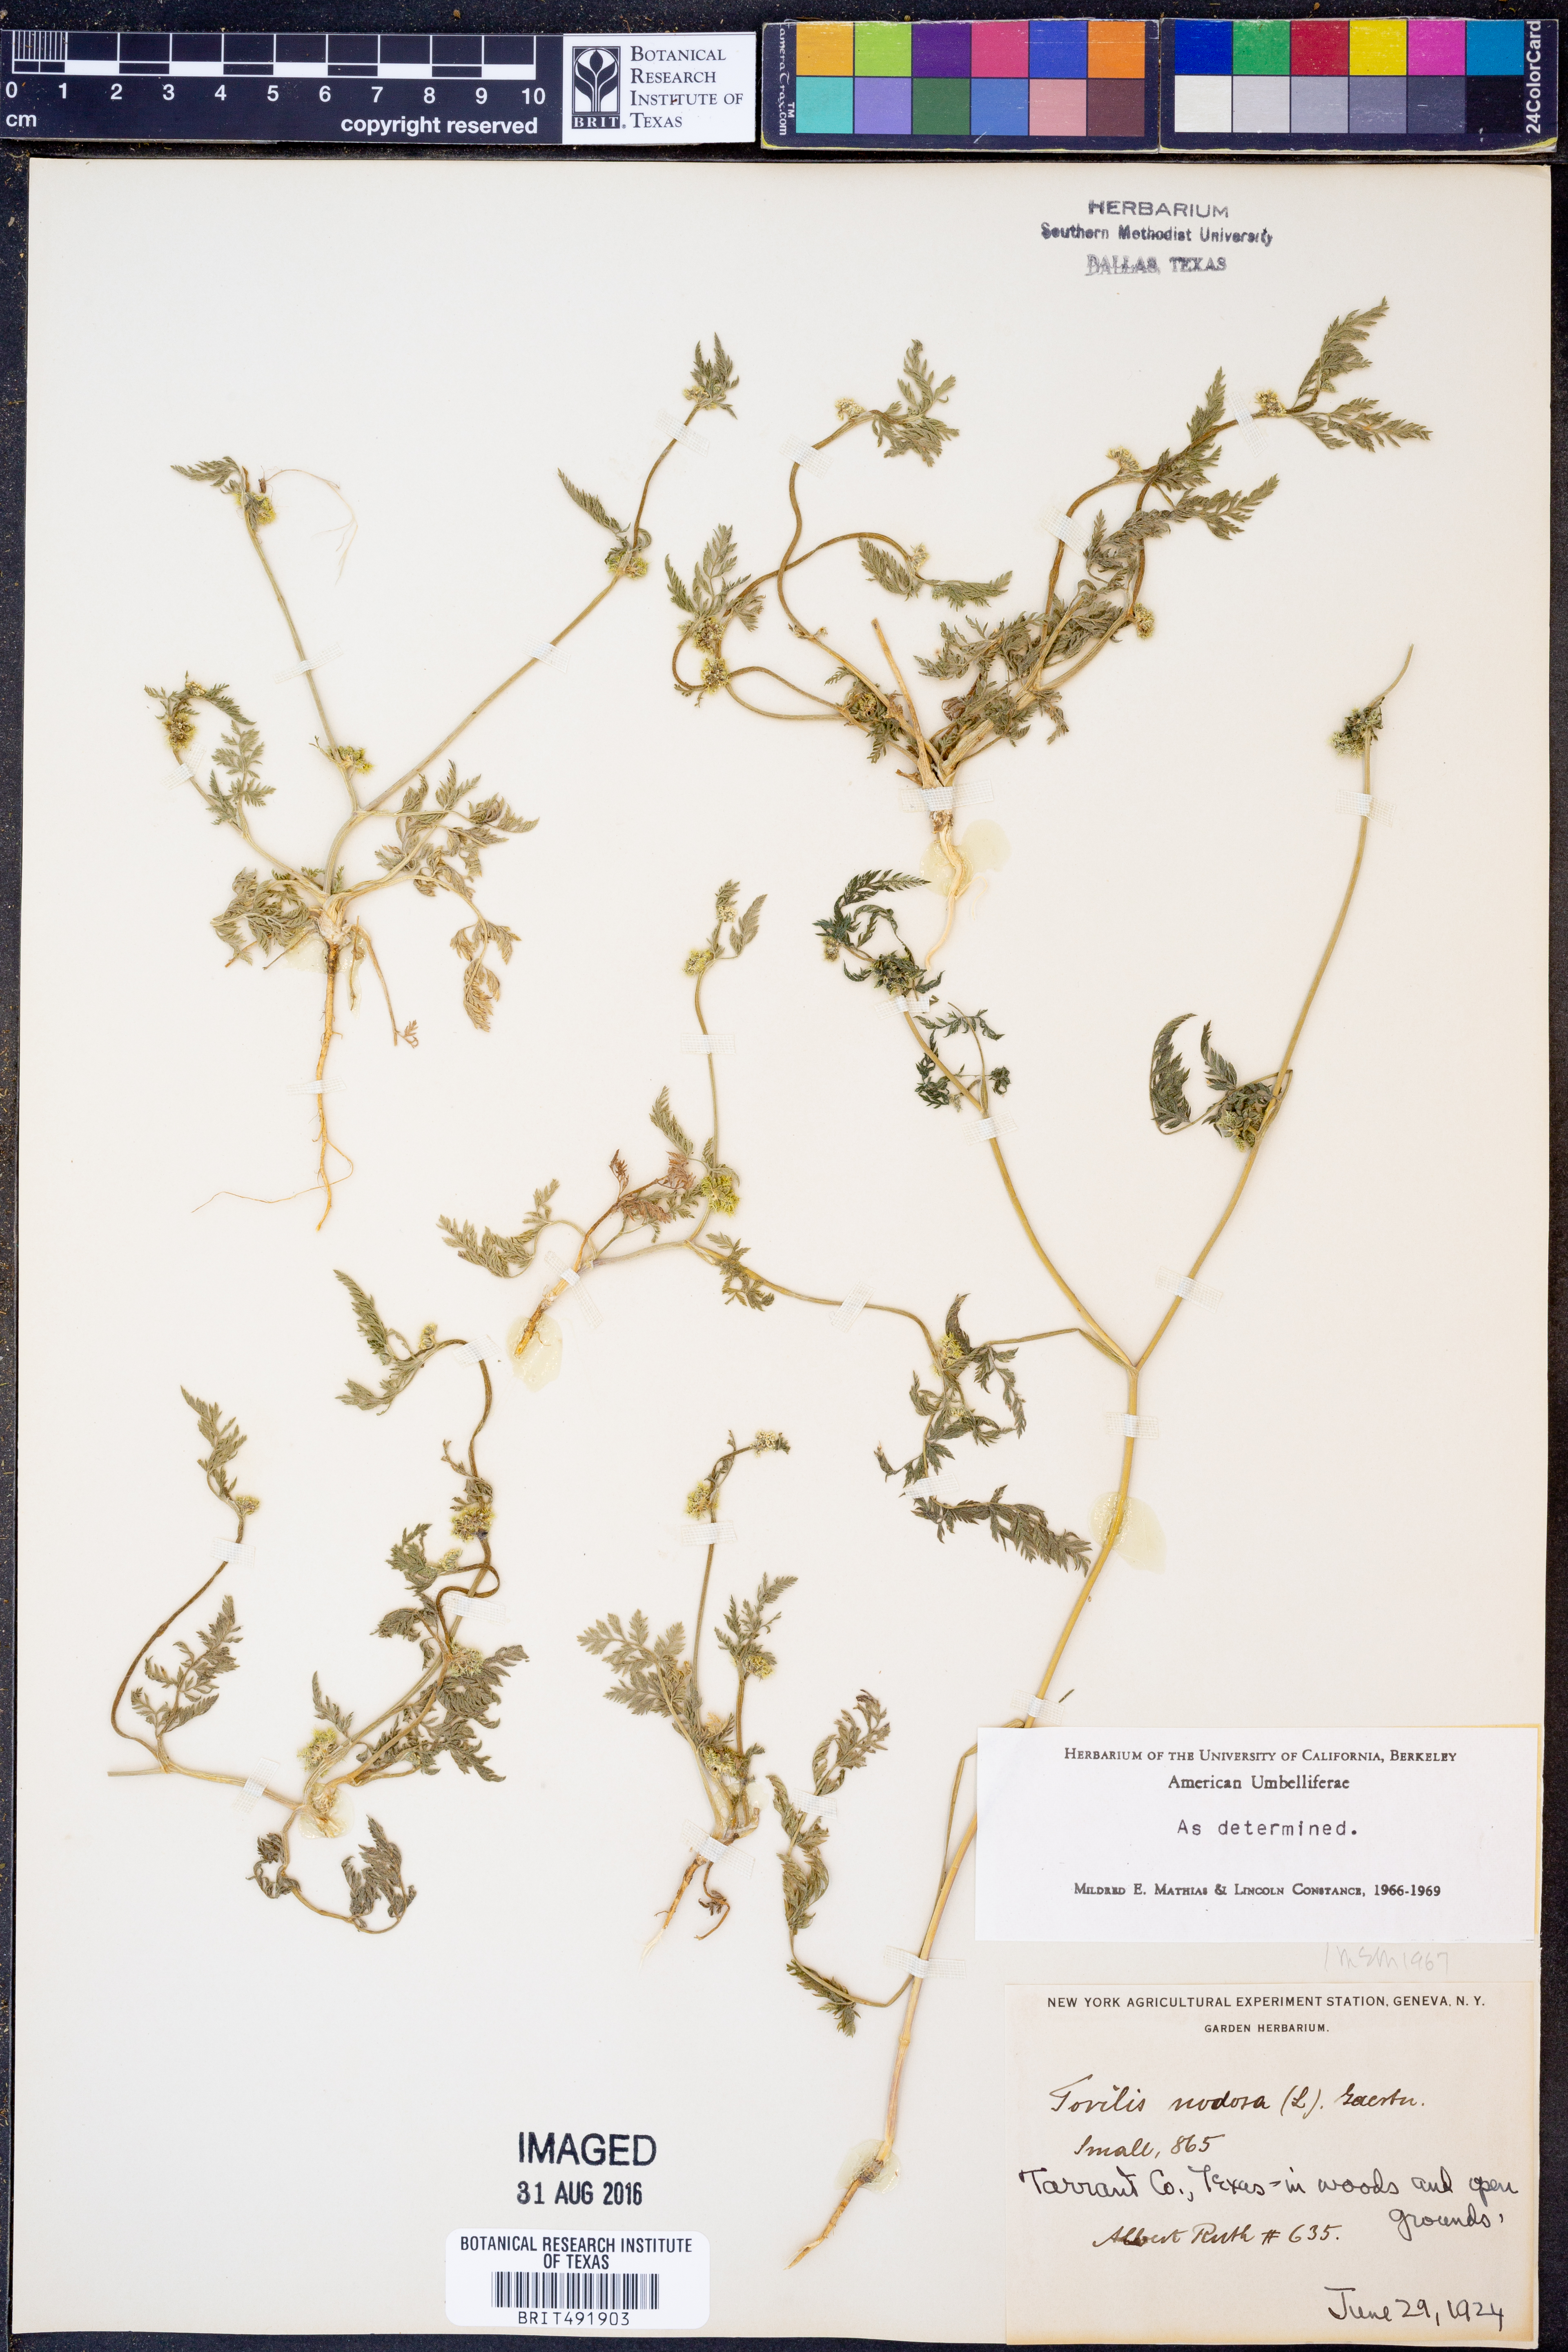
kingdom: Plantae
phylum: Tracheophyta
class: Magnoliopsida
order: Apiales
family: Apiaceae
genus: Torilis
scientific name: Torilis nodosa
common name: Knotted hedge-parsley
